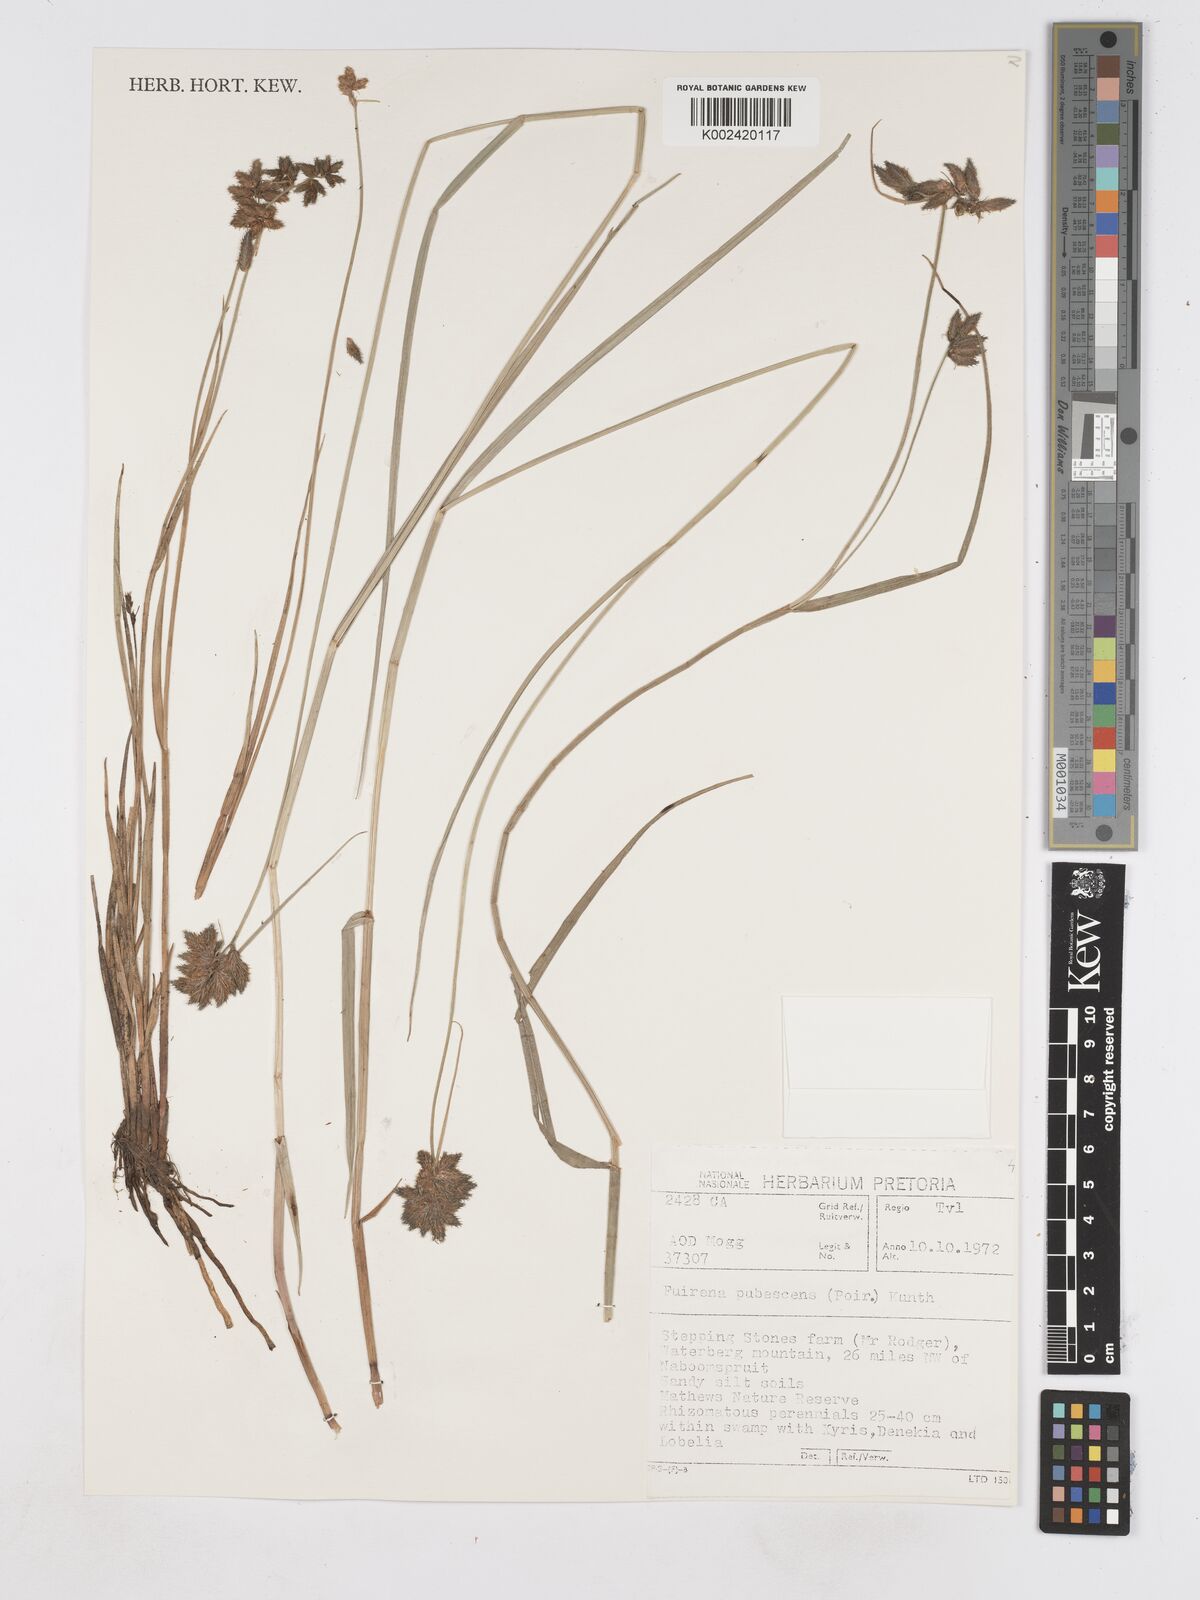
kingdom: Plantae
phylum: Tracheophyta
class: Liliopsida
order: Poales
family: Cyperaceae
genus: Fuirena
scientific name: Fuirena pubescens
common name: Hairy sedge
